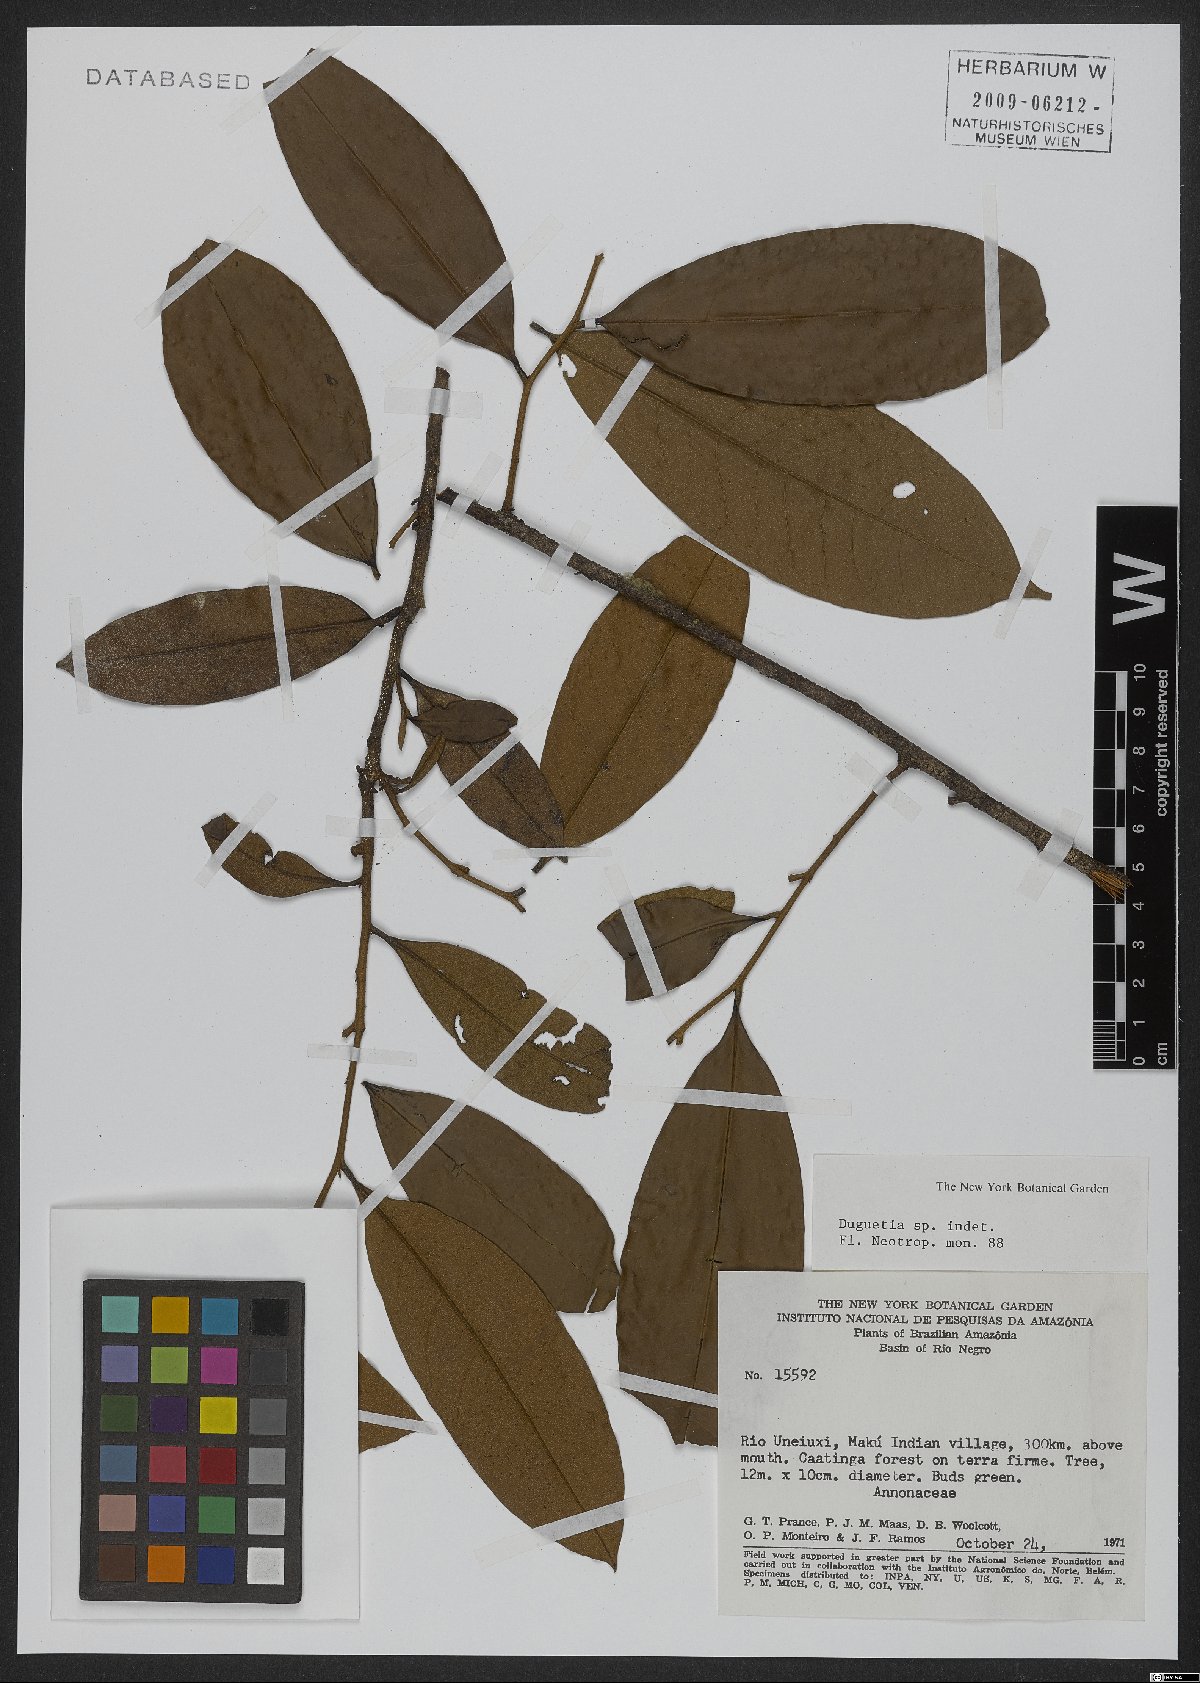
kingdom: Plantae
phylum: Tracheophyta
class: Magnoliopsida
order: Magnoliales
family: Annonaceae
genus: Duguetia
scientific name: Duguetia
